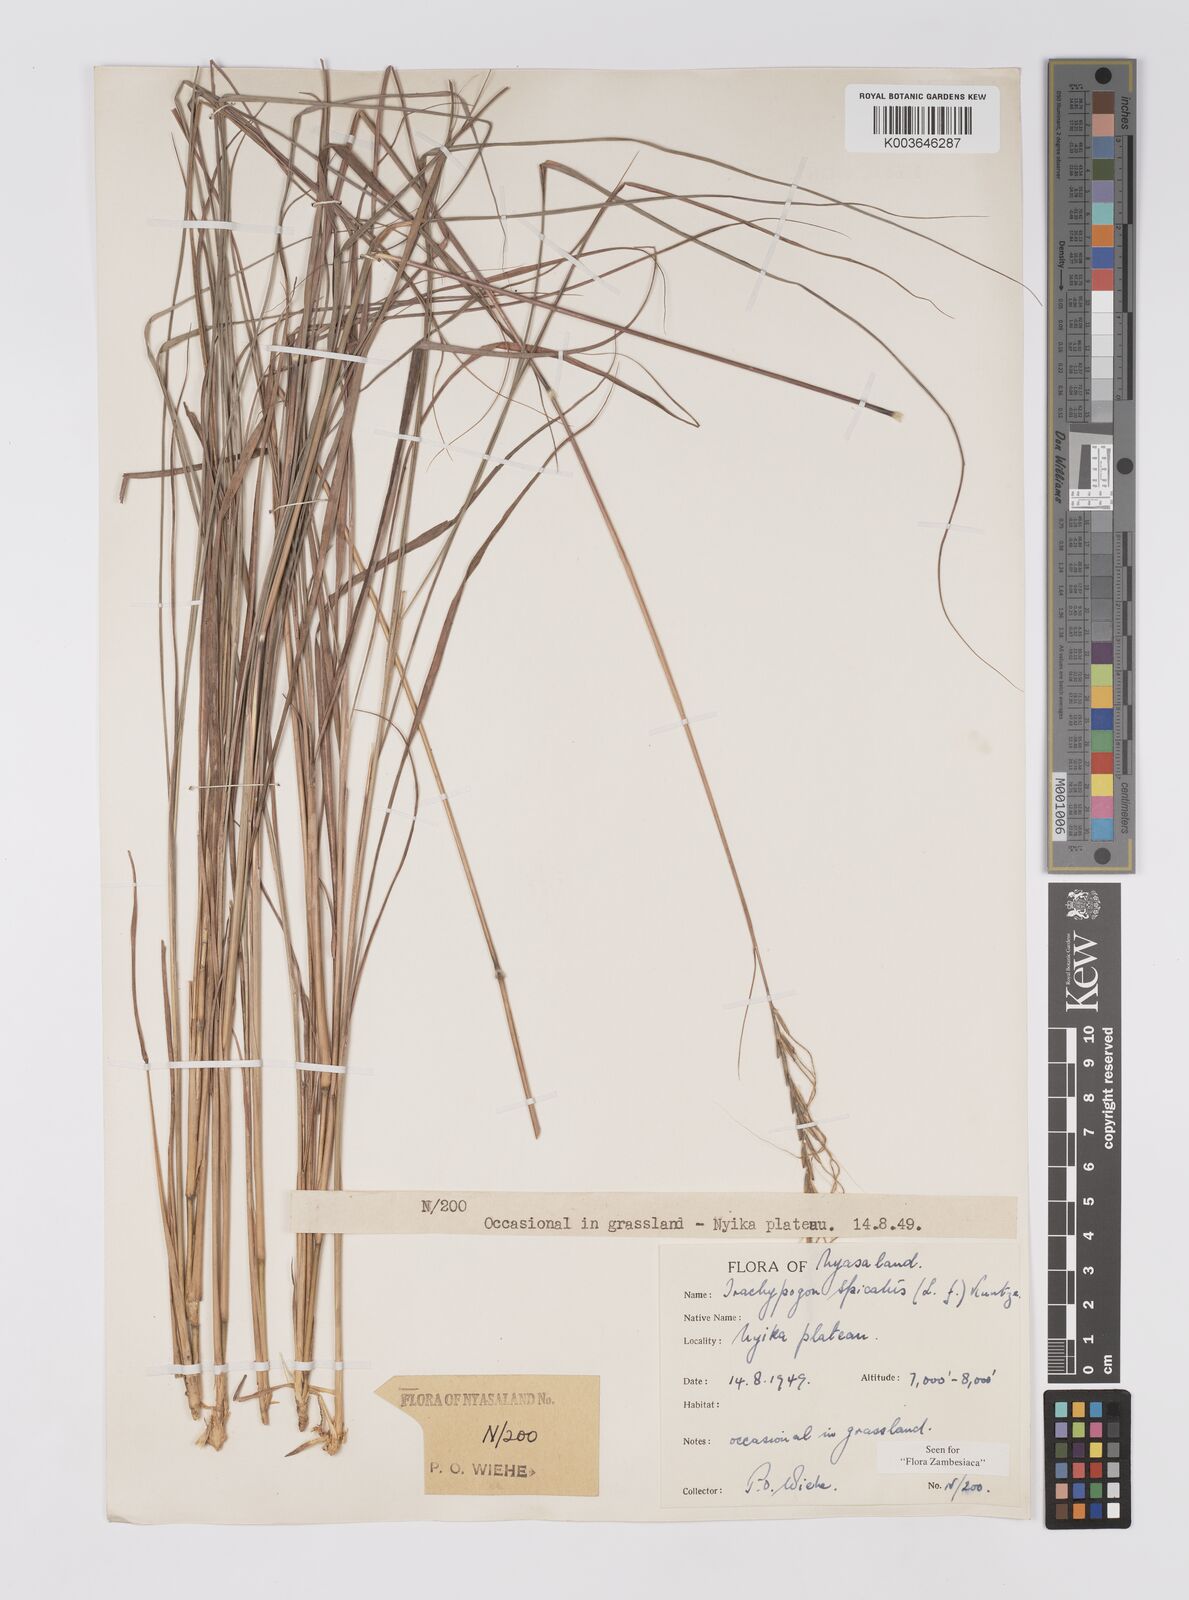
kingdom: Plantae
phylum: Tracheophyta
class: Liliopsida
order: Poales
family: Poaceae
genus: Trachypogon
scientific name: Trachypogon spicatus
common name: Crinkle-awn
